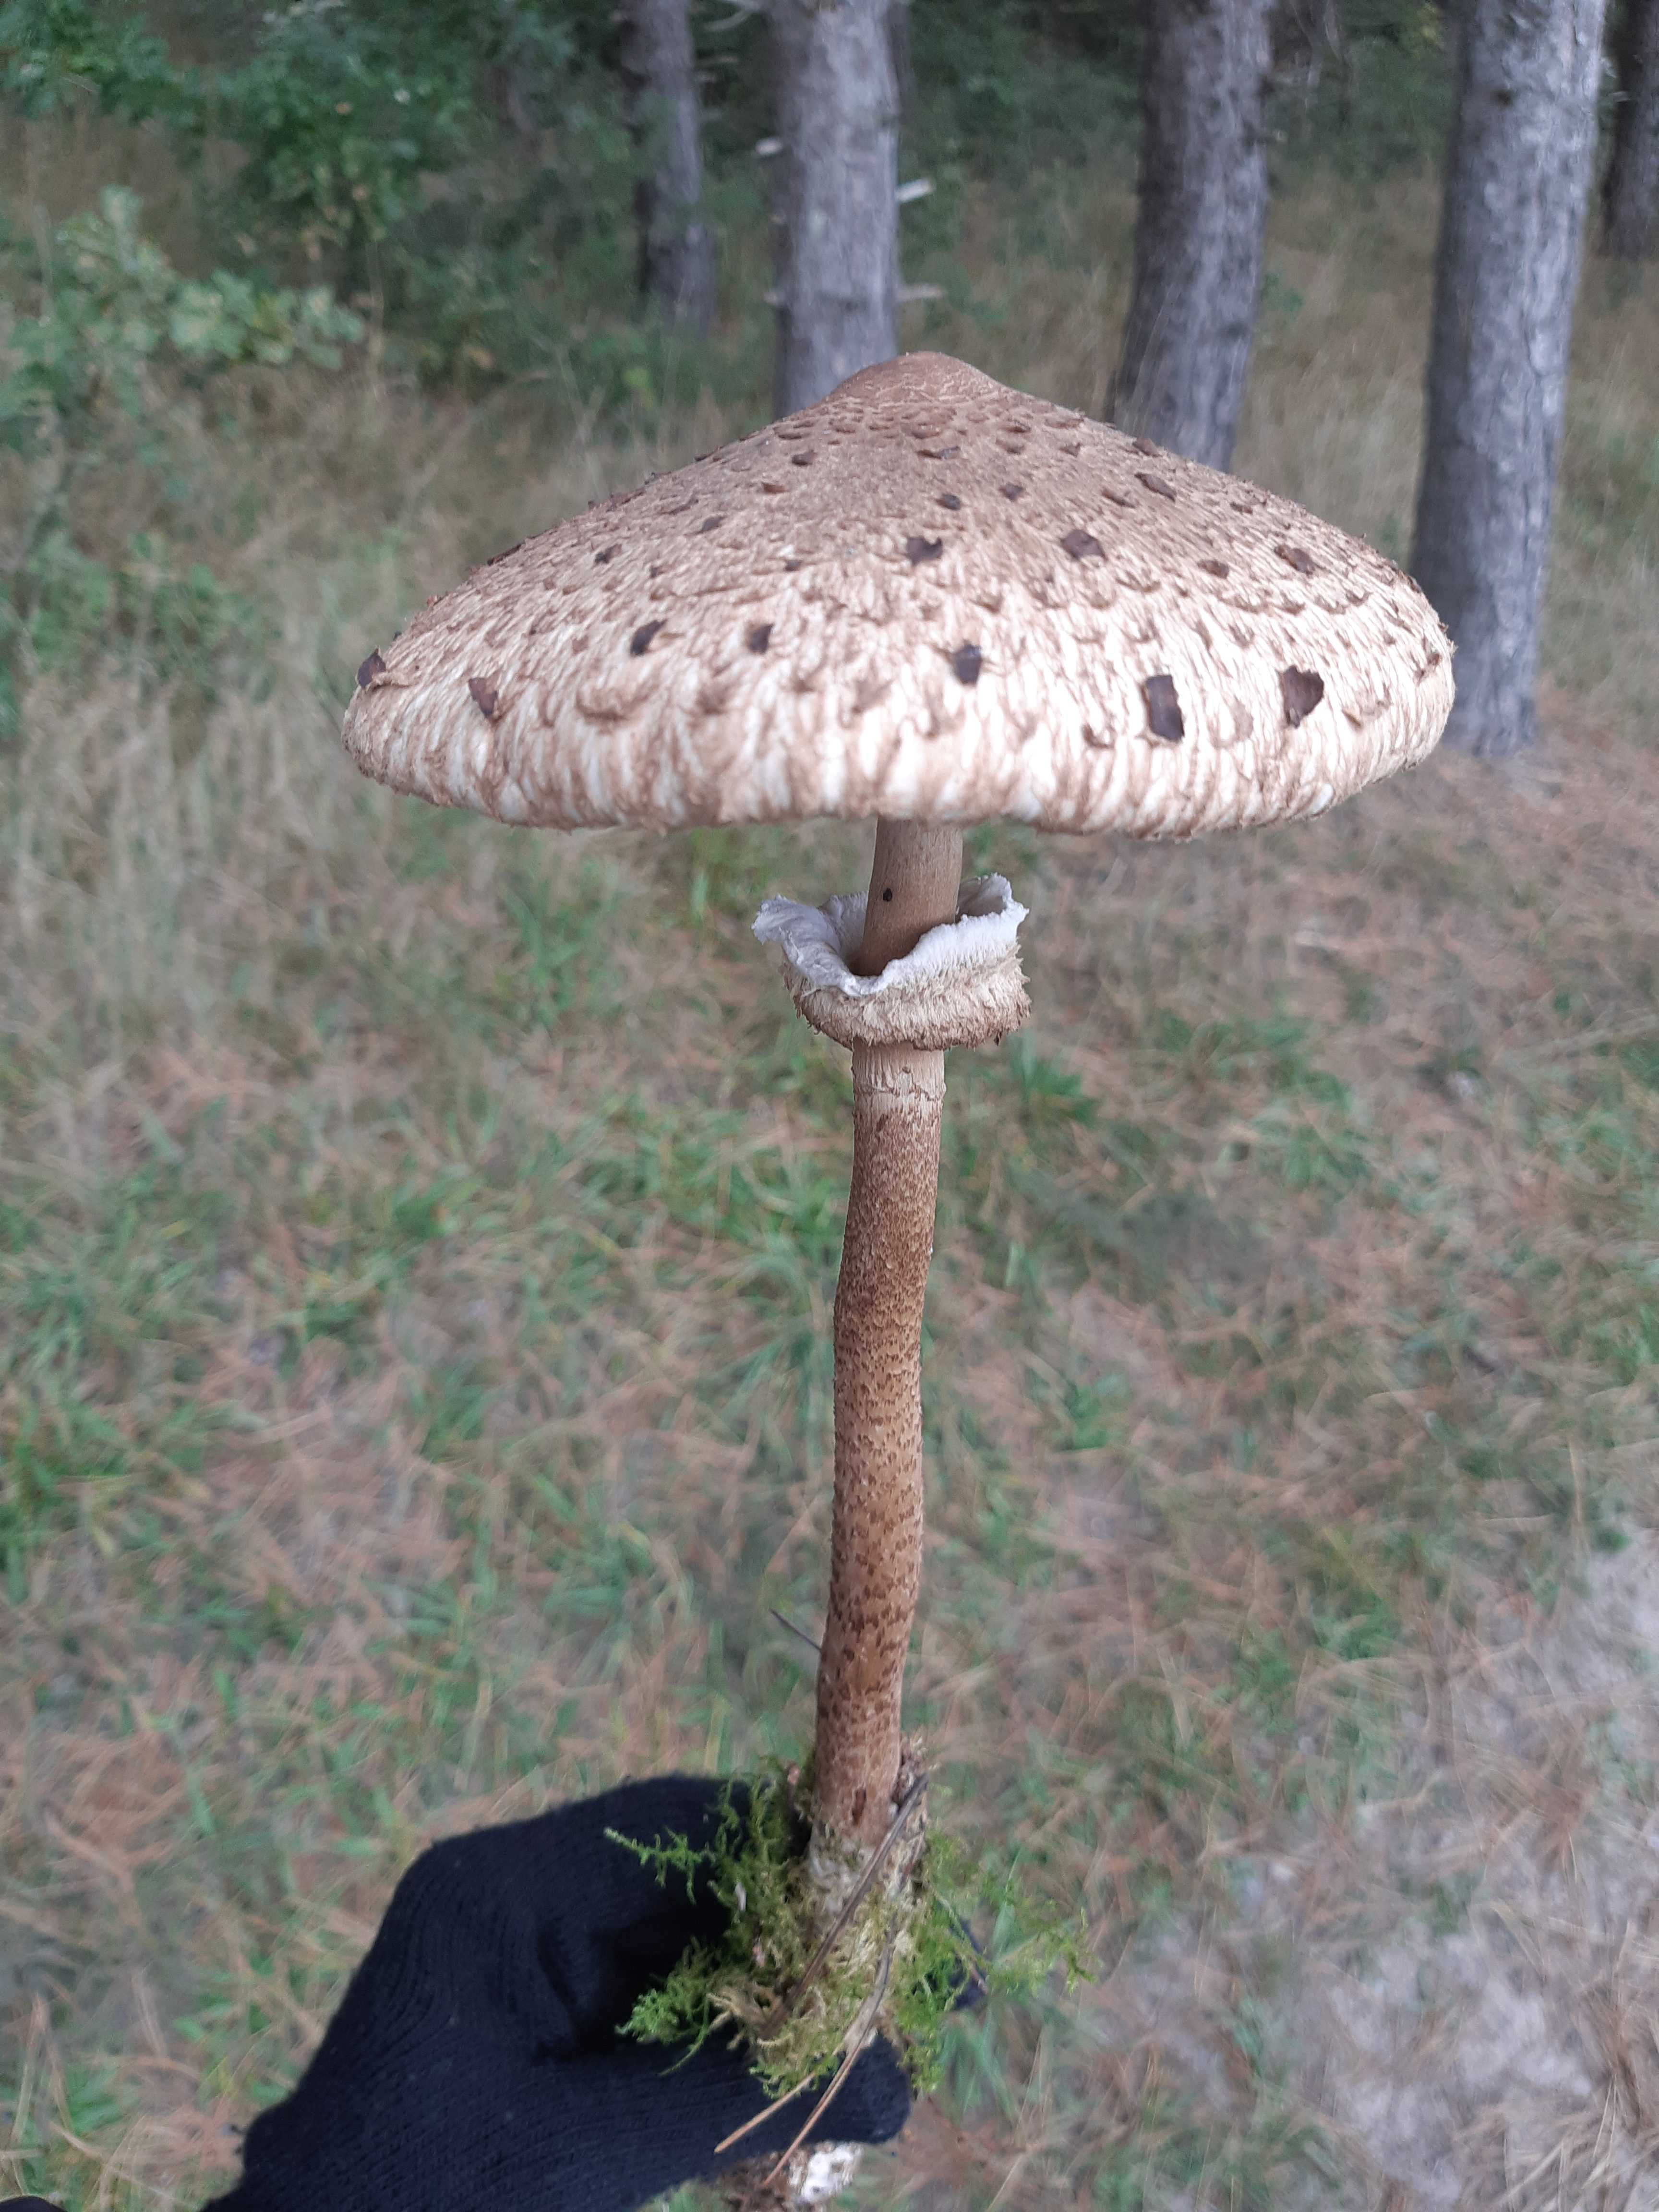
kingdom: Fungi
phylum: Basidiomycota
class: Agaricomycetes
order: Agaricales
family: Agaricaceae
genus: Macrolepiota
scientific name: Macrolepiota procera
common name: stor kæmpeparasolhat
